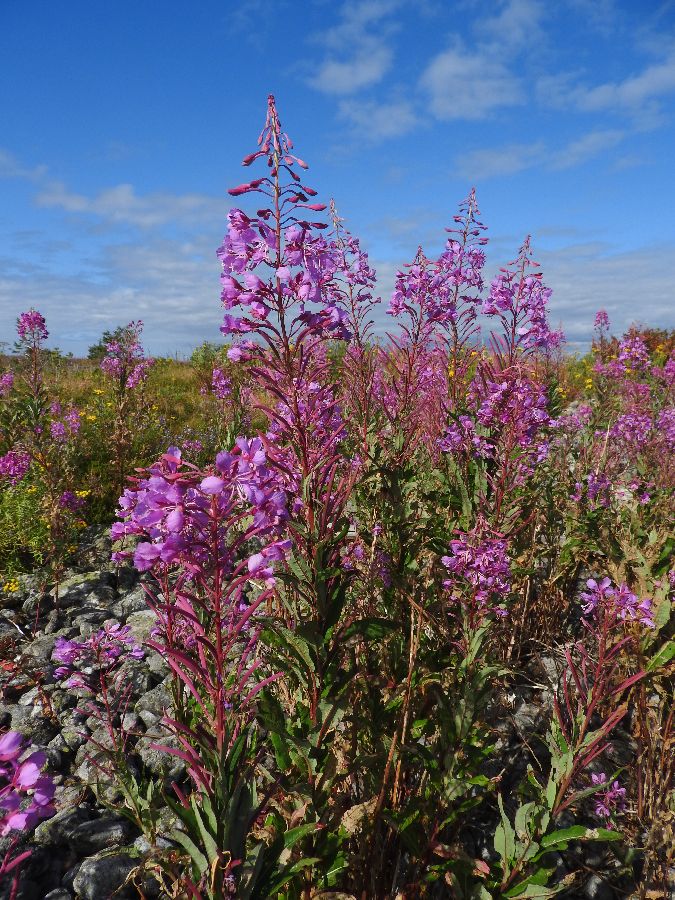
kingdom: Plantae
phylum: Tracheophyta
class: Magnoliopsida
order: Myrtales
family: Onagraceae
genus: Chamaenerion
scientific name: Chamaenerion angustifolium
